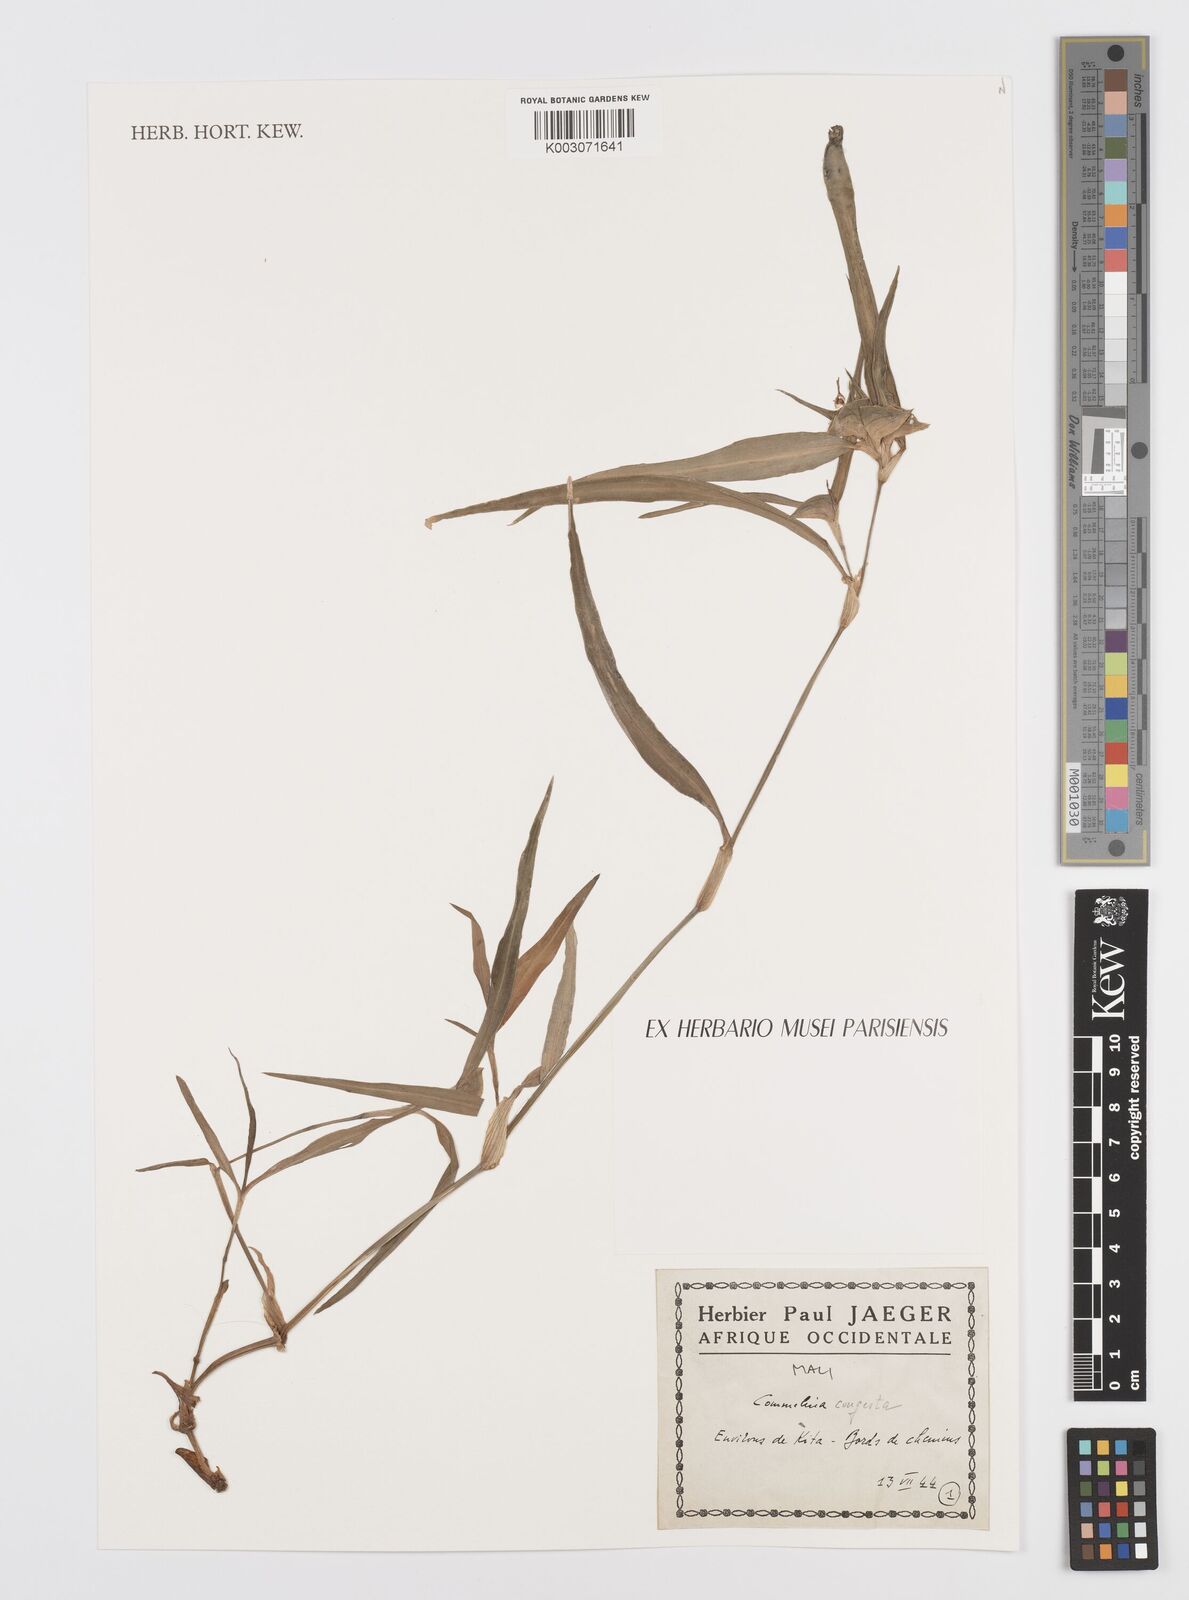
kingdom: Plantae
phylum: Tracheophyta
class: Liliopsida
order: Commelinales
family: Commelinaceae
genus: Commelina
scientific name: Commelina congesta
